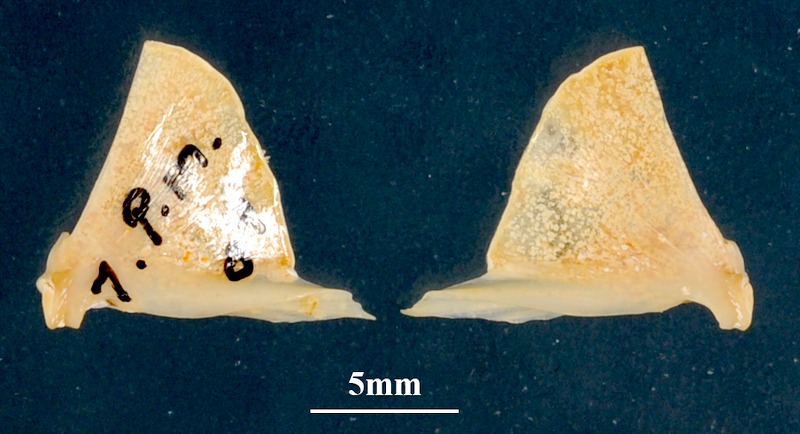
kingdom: Animalia
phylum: Chordata
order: Perciformes
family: Mullidae
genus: Parupeneus
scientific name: Parupeneus macronemus
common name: Long-barbel goatfish
